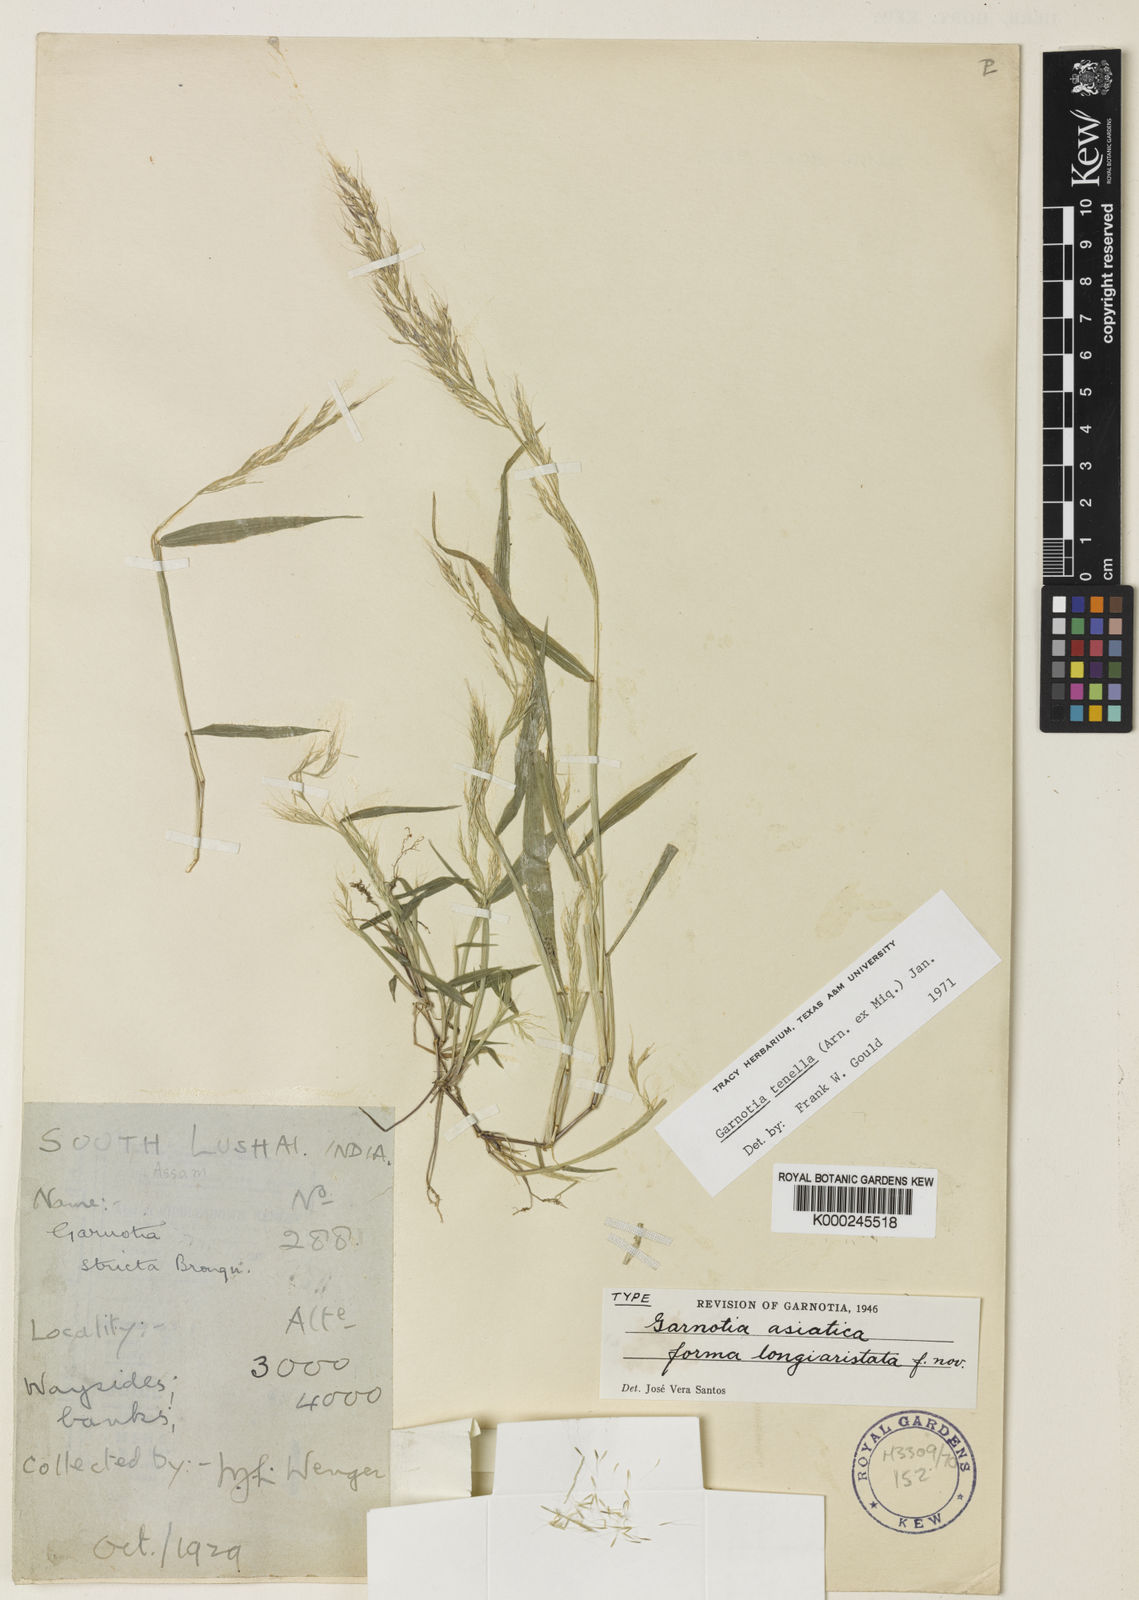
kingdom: Plantae
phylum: Tracheophyta
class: Liliopsida
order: Poales
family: Poaceae
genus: Garnotia
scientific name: Garnotia tenella
